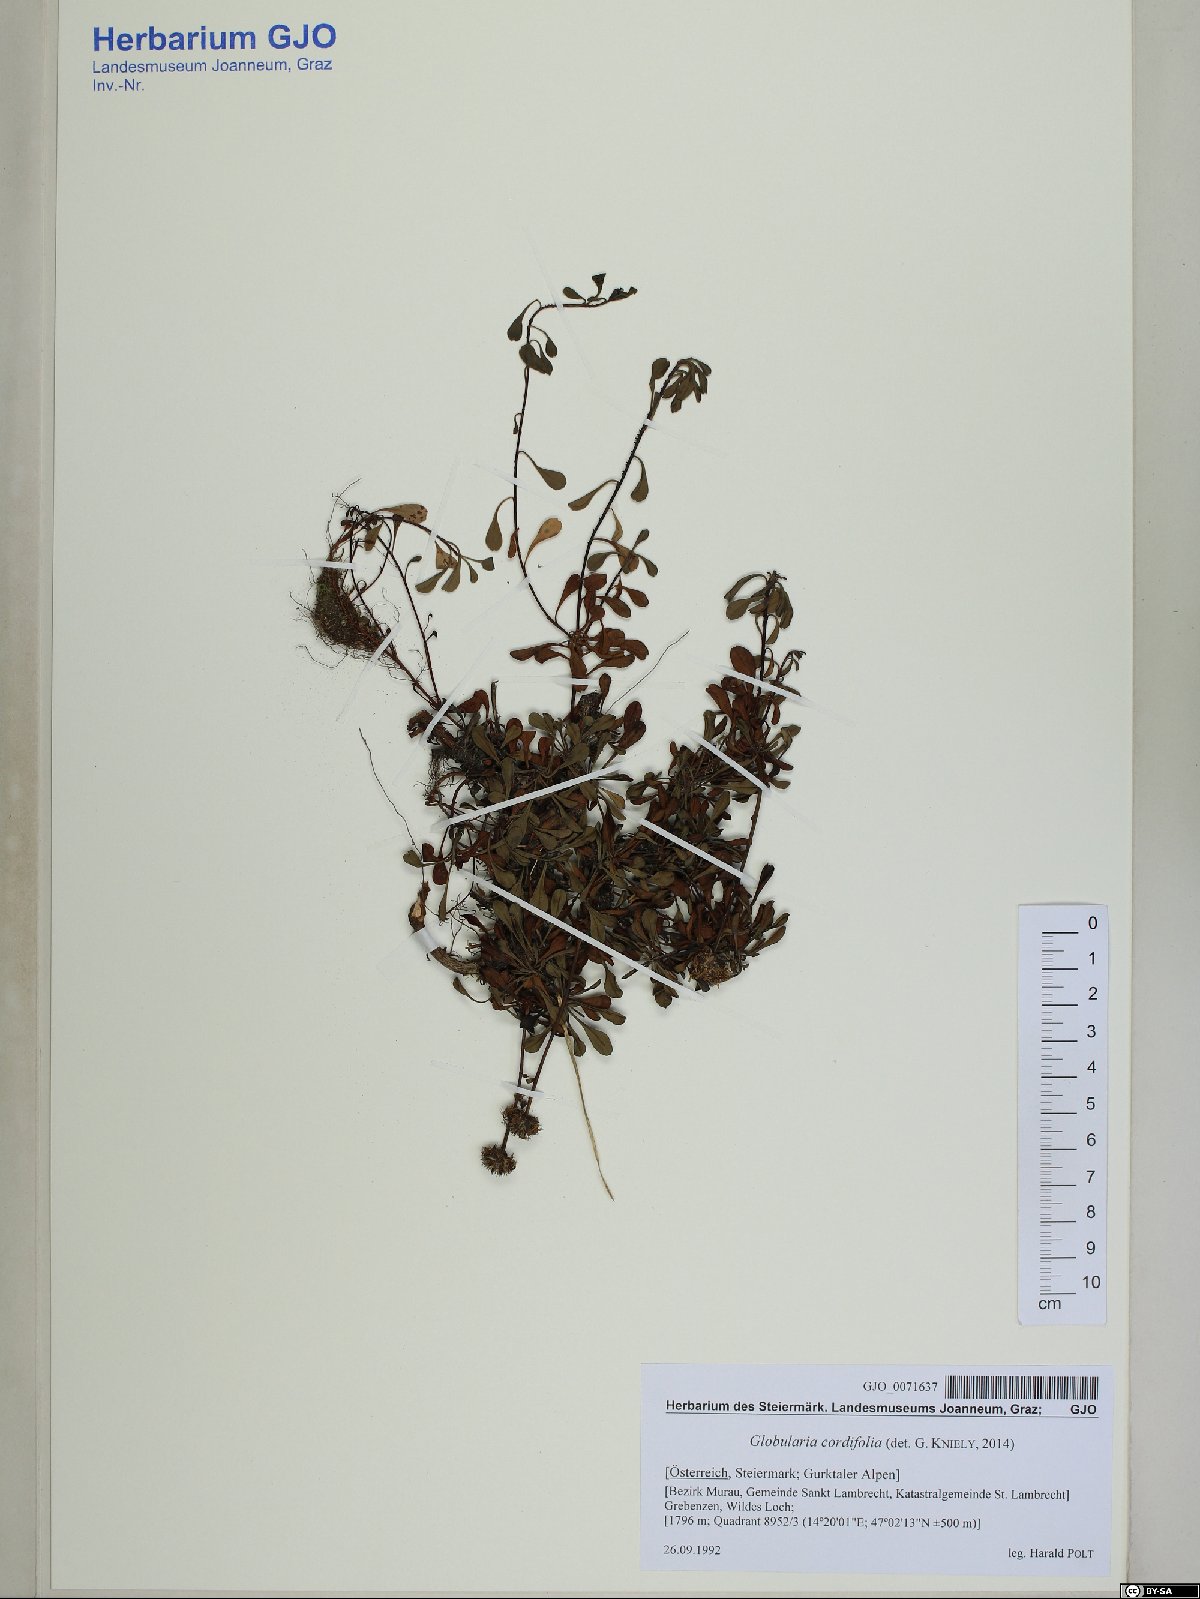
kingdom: Plantae
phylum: Tracheophyta
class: Magnoliopsida
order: Lamiales
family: Plantaginaceae
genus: Globularia
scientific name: Globularia cordifolia
